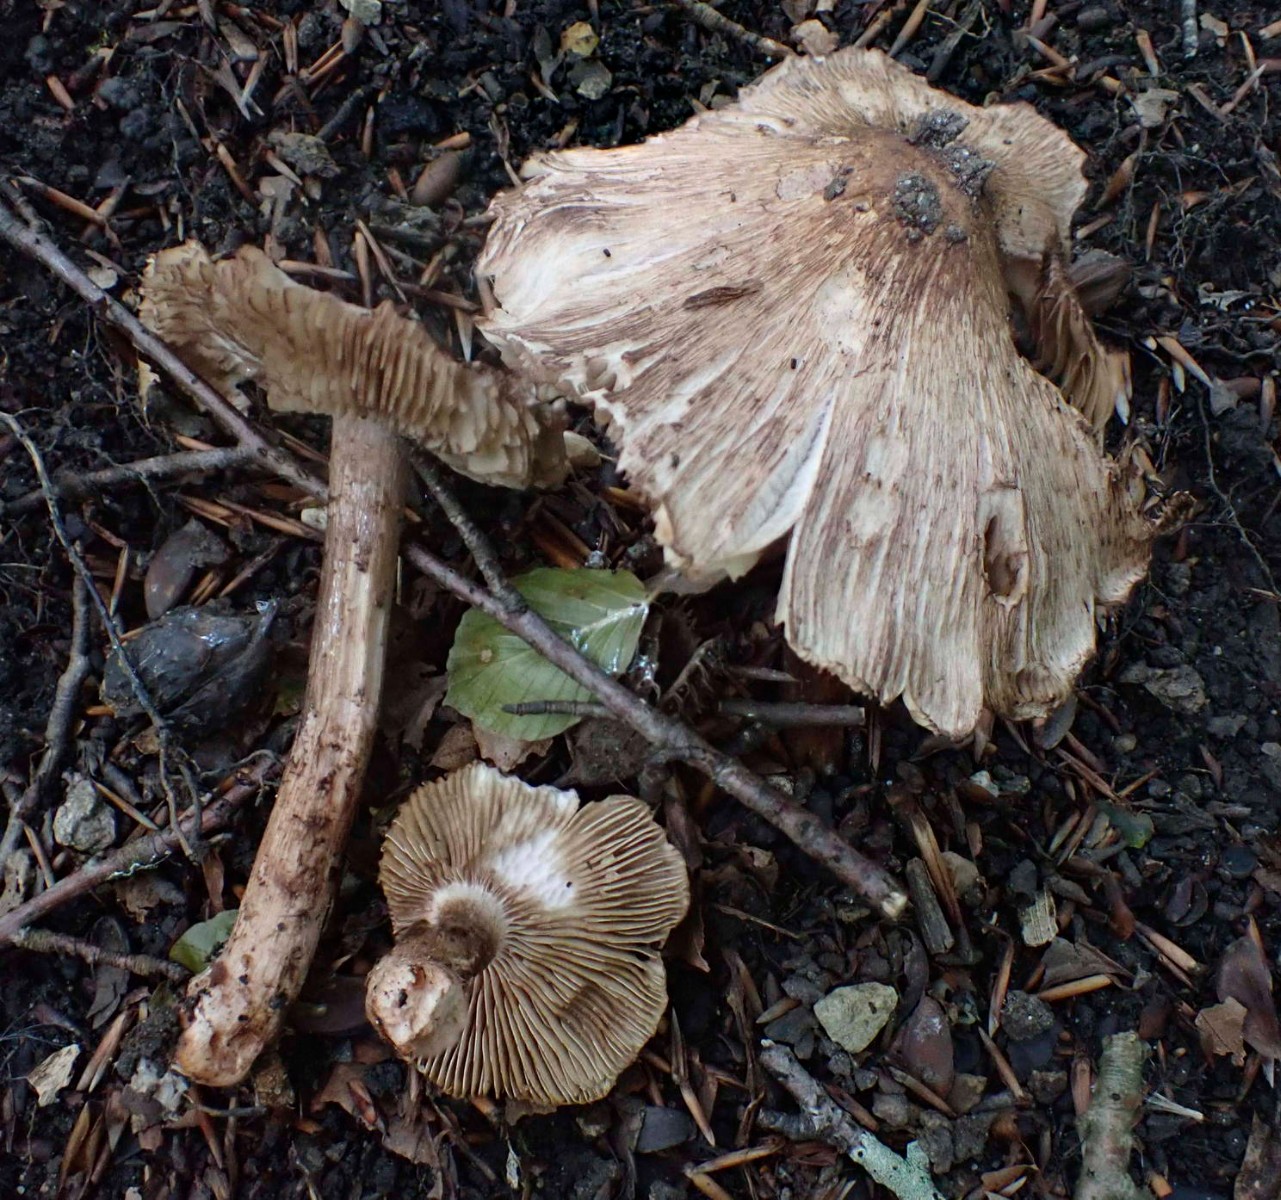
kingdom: Fungi
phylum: Basidiomycota
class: Agaricomycetes
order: Agaricales
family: Inocybaceae
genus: Inosperma
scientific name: Inosperma adaequatum
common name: vinrød trævlhat
